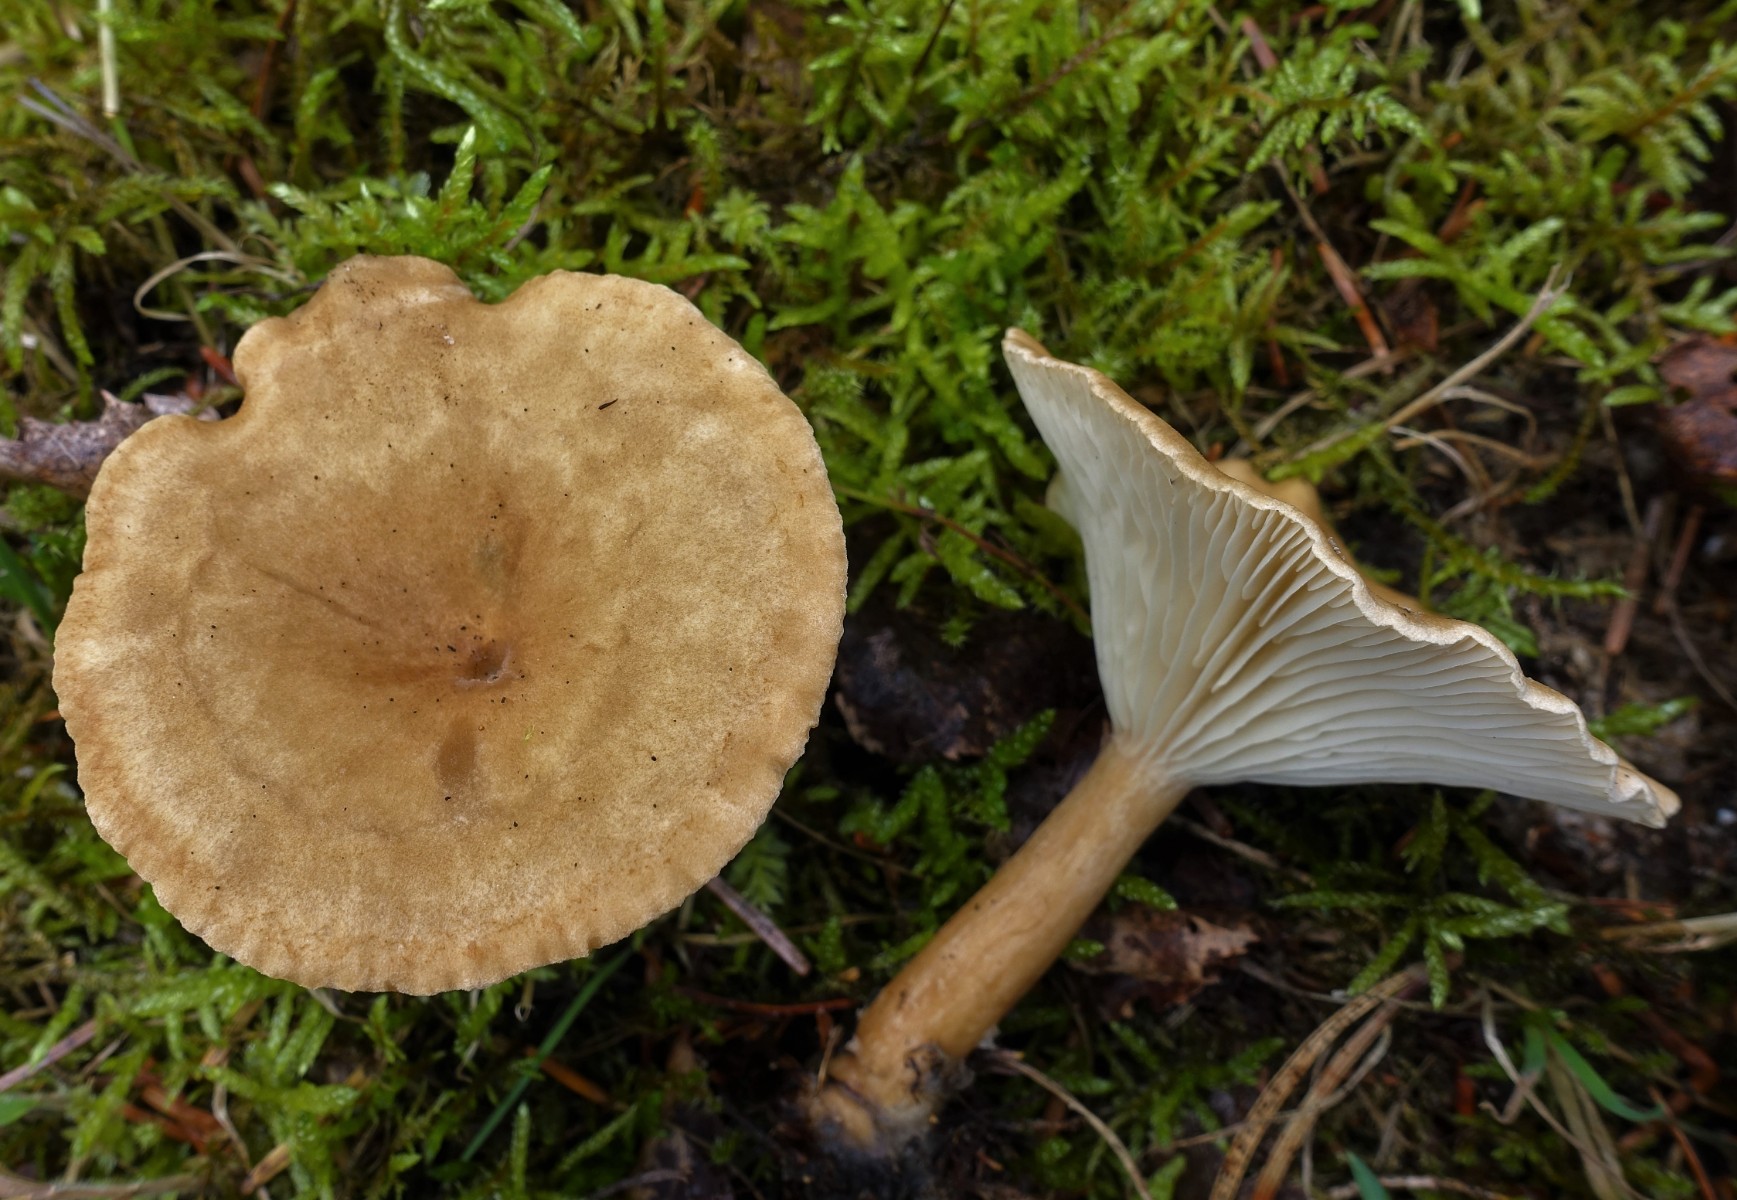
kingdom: Fungi
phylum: Basidiomycota
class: Agaricomycetes
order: Agaricales
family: Tricholomataceae
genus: Clitocybe
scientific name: Clitocybe costata
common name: brunstokket tragthat
